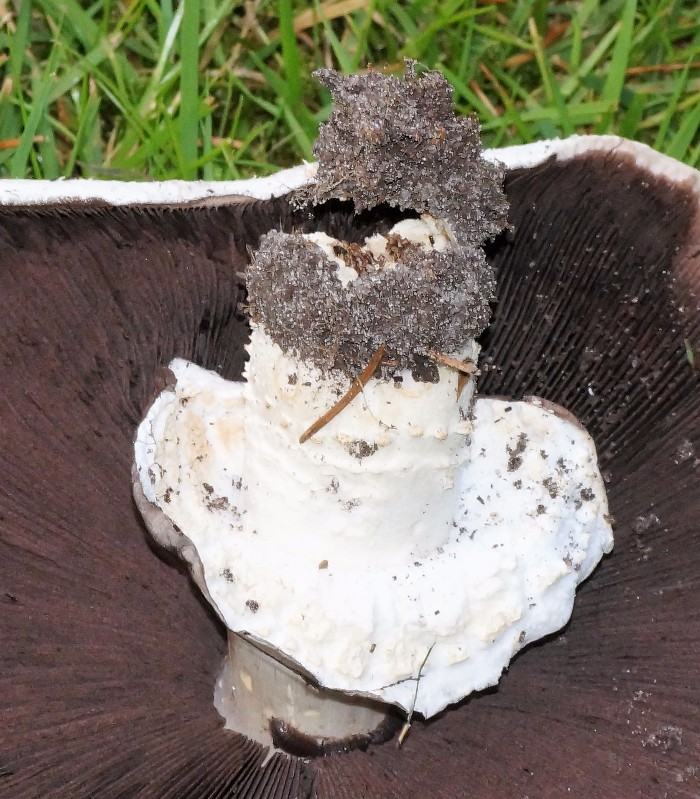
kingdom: Fungi
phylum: Basidiomycota
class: Agaricomycetes
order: Agaricales
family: Agaricaceae
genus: Agaricus
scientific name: Agaricus
